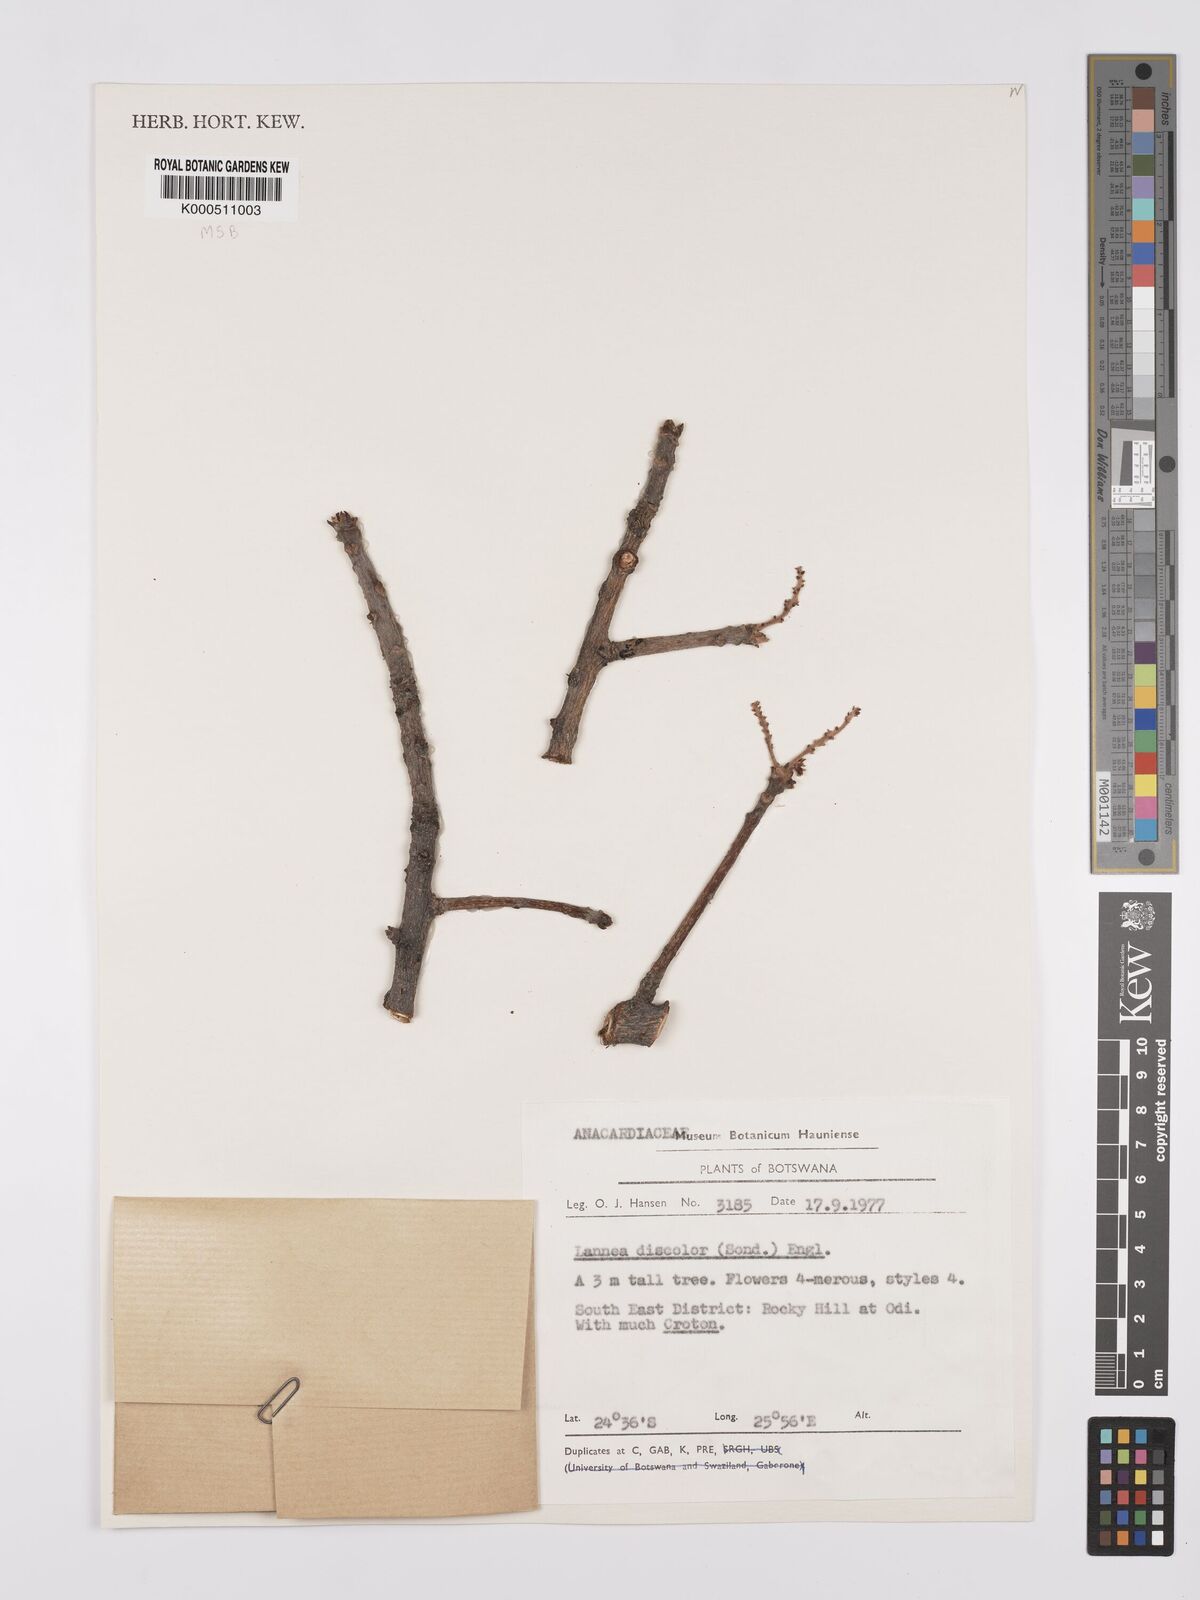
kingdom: Plantae
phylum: Tracheophyta
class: Magnoliopsida
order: Sapindales
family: Anacardiaceae
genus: Lannea
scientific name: Lannea discolor
